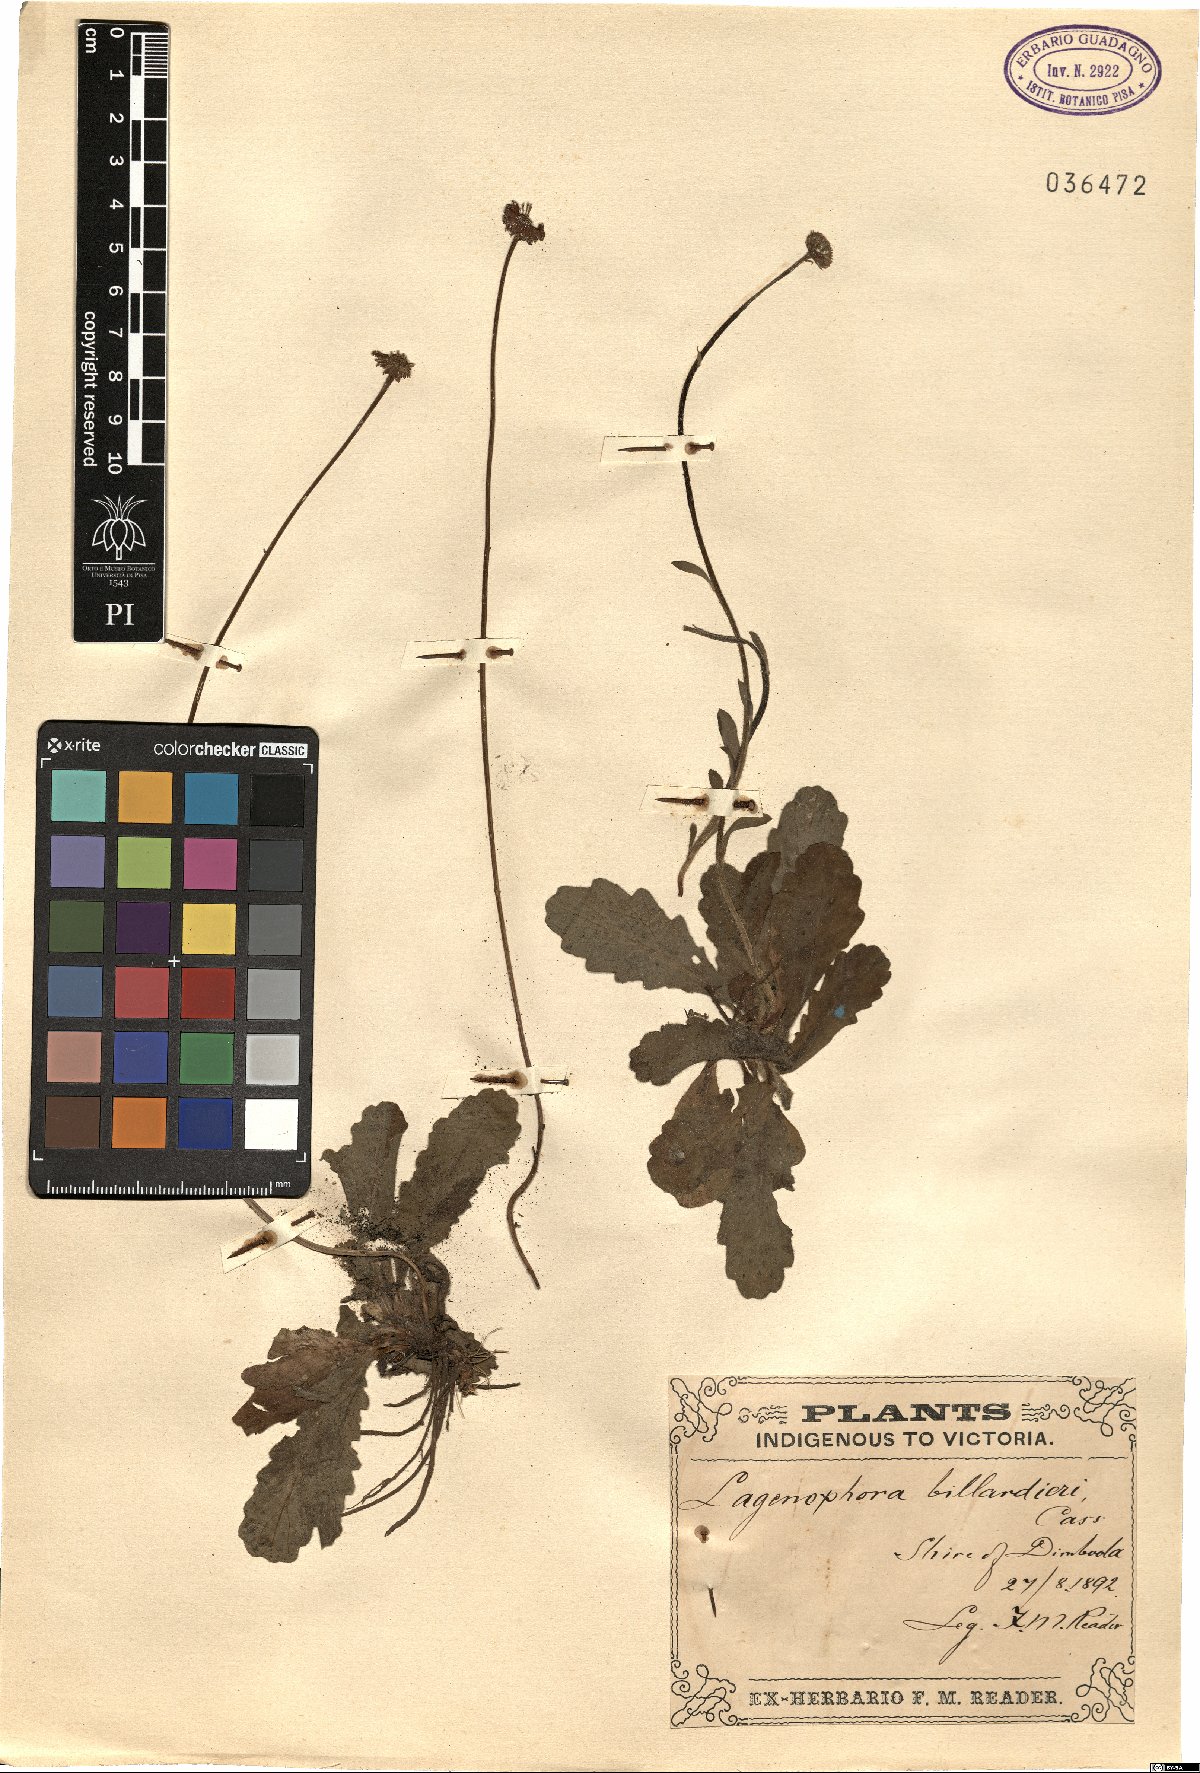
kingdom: Plantae
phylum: Tracheophyta
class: Magnoliopsida
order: Asterales
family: Asteraceae
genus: Lagenophora
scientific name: Lagenophora stipitata
